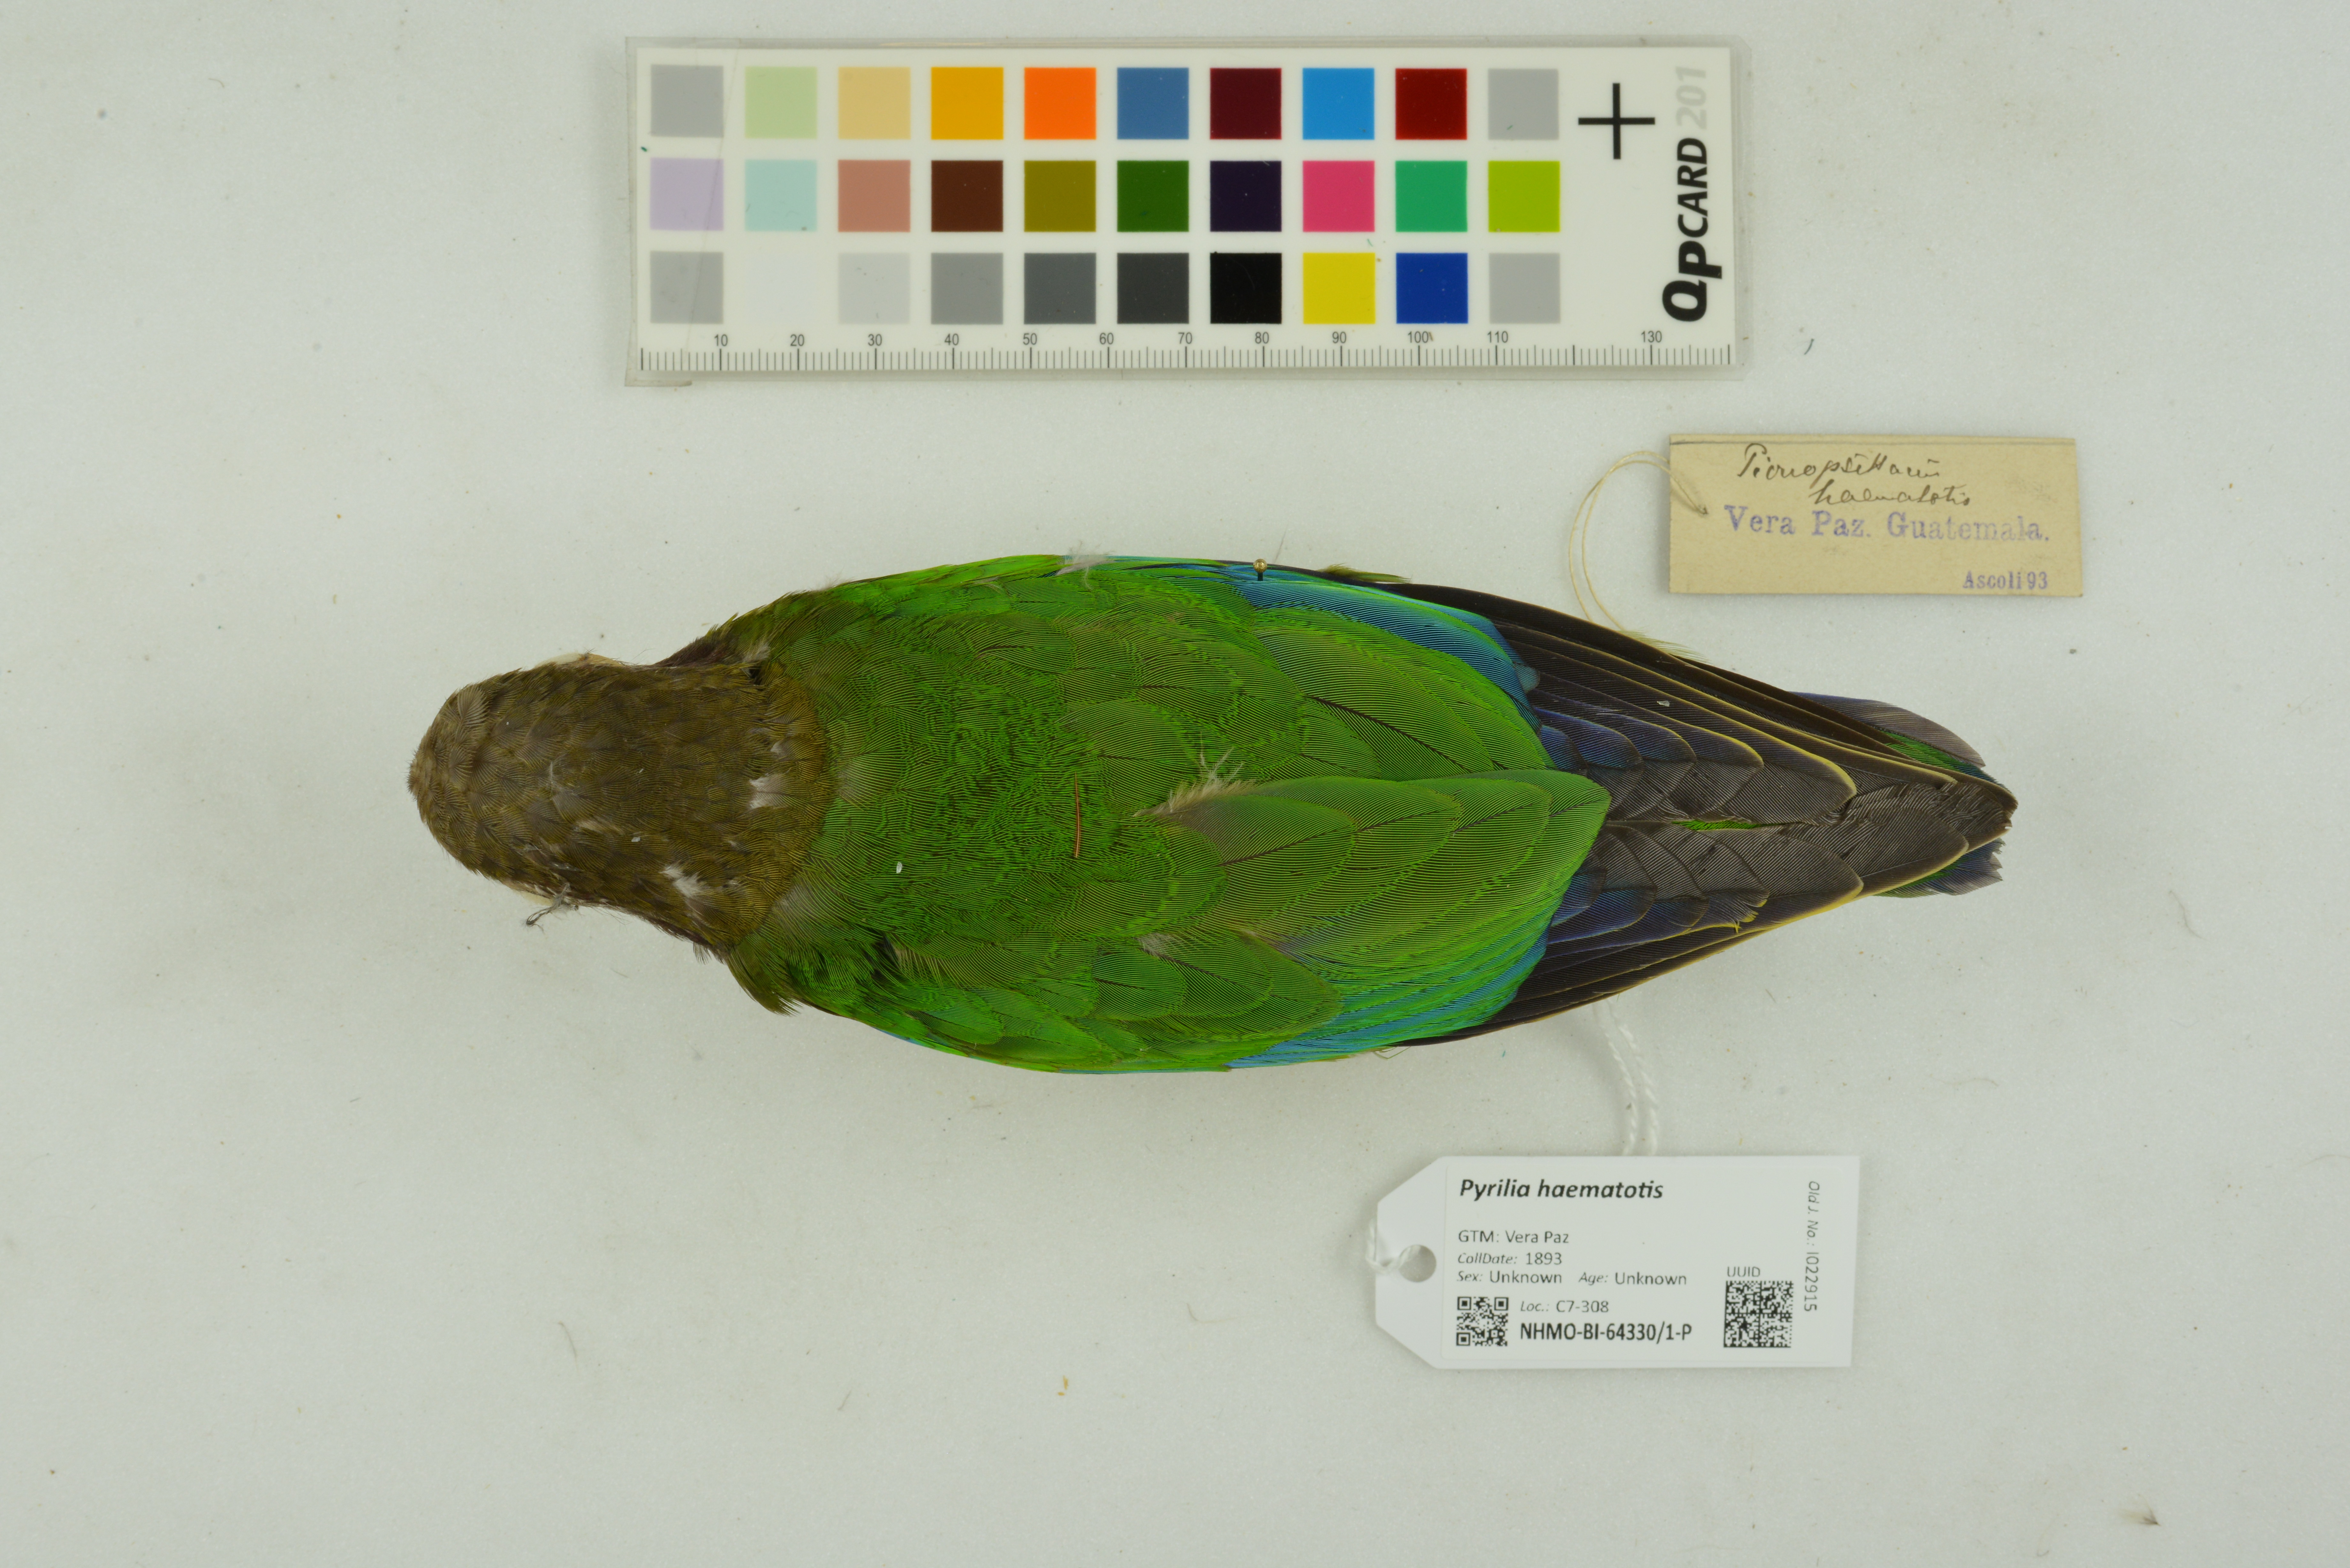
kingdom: Animalia
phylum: Chordata
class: Aves
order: Psittaciformes
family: Psittacidae
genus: Pionopsitta
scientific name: Pionopsitta haematotis
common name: Brown-hooded parrot
